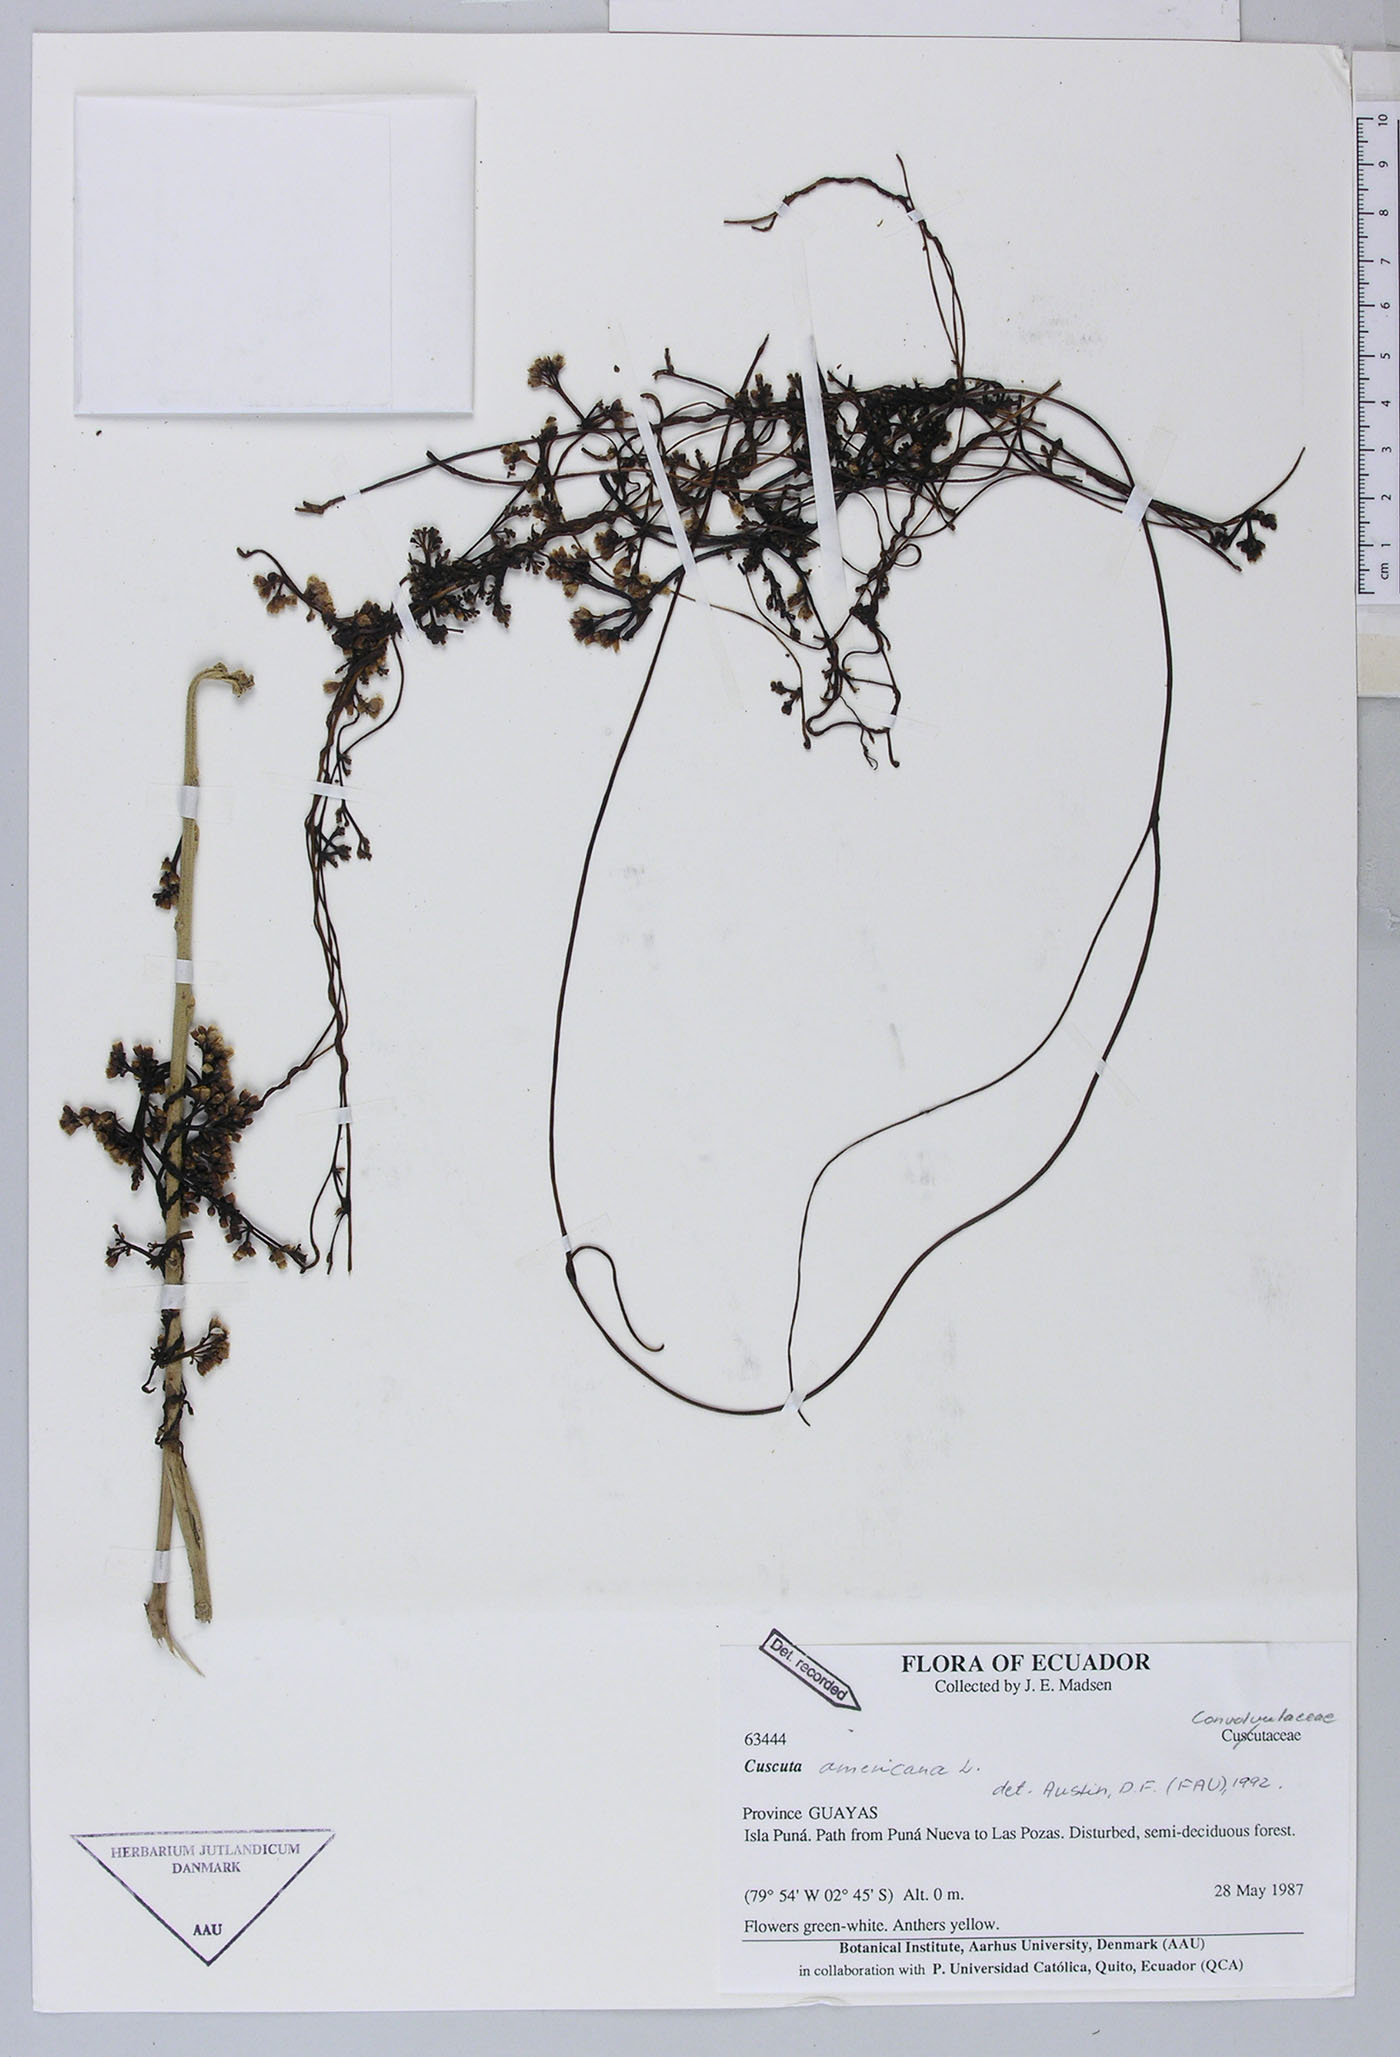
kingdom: Plantae
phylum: Tracheophyta
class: Magnoliopsida
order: Solanales
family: Convolvulaceae
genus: Cuscuta
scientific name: Cuscuta americana
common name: American dodder
